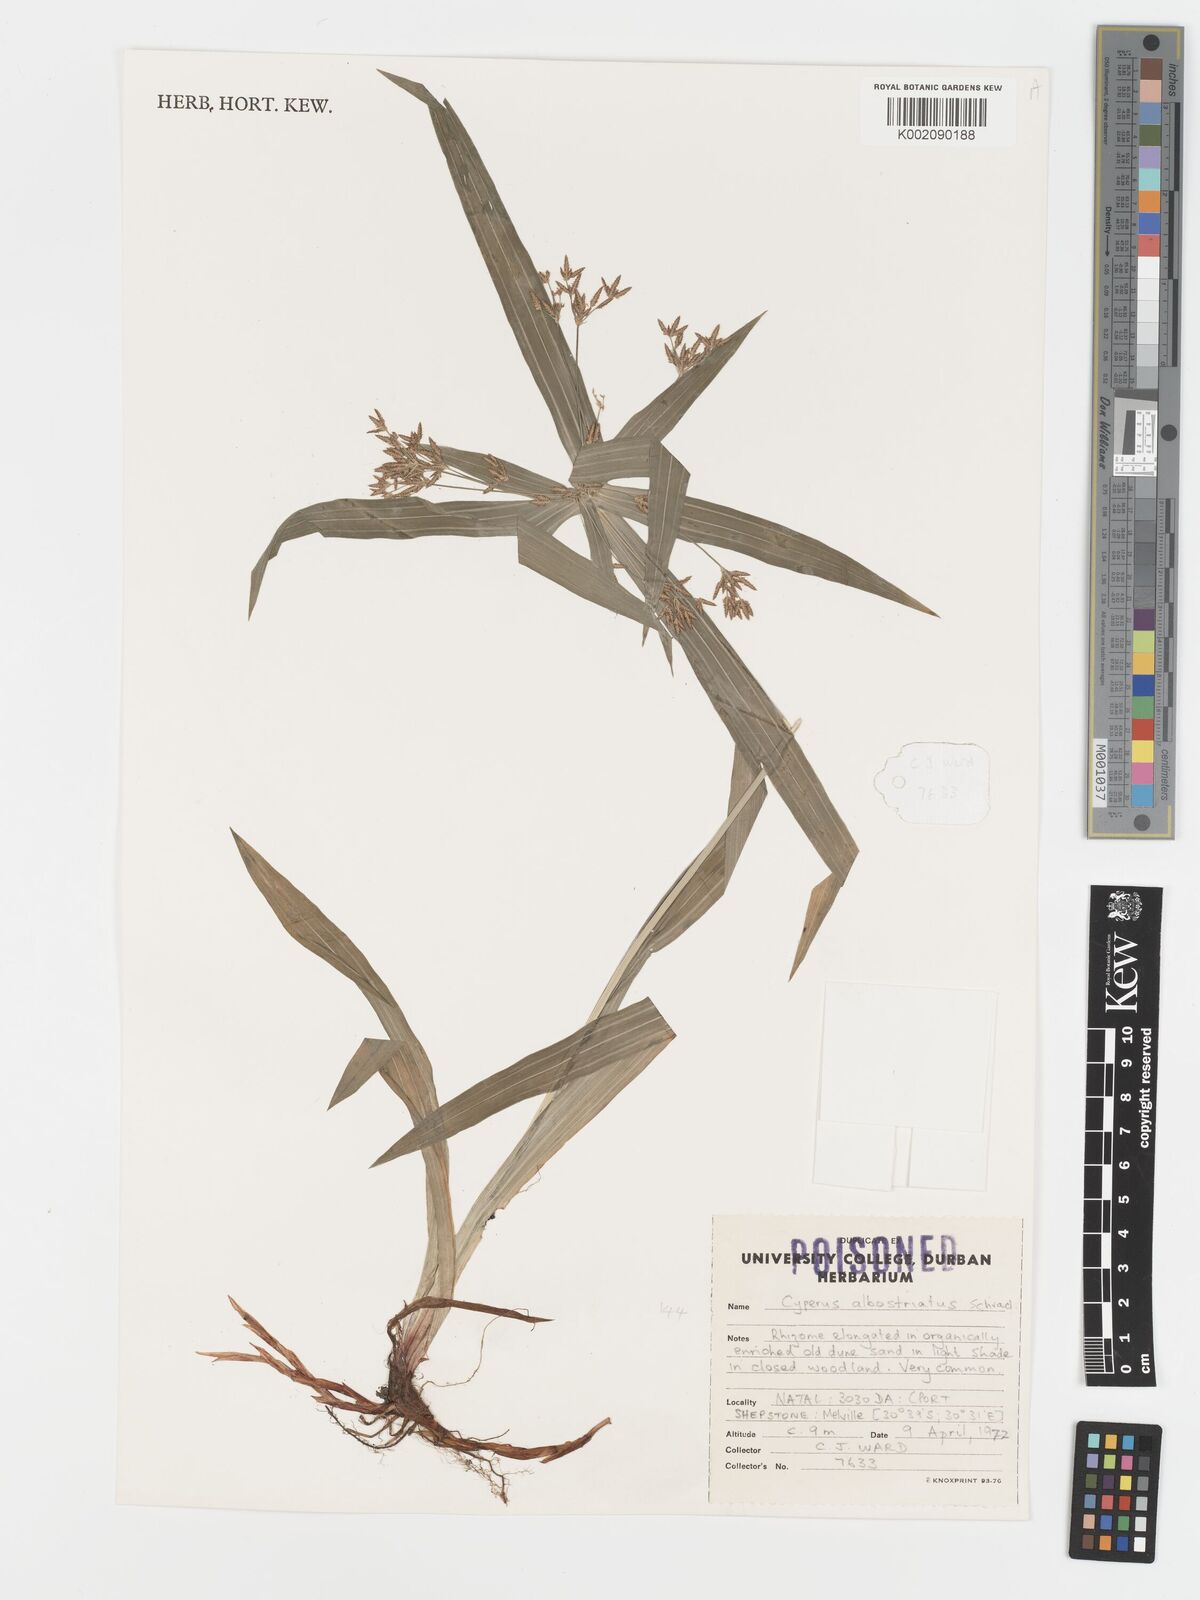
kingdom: Plantae
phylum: Tracheophyta
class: Liliopsida
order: Poales
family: Cyperaceae
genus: Cyperus
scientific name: Cyperus albostriatus
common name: Dwarf umbrella-grass
